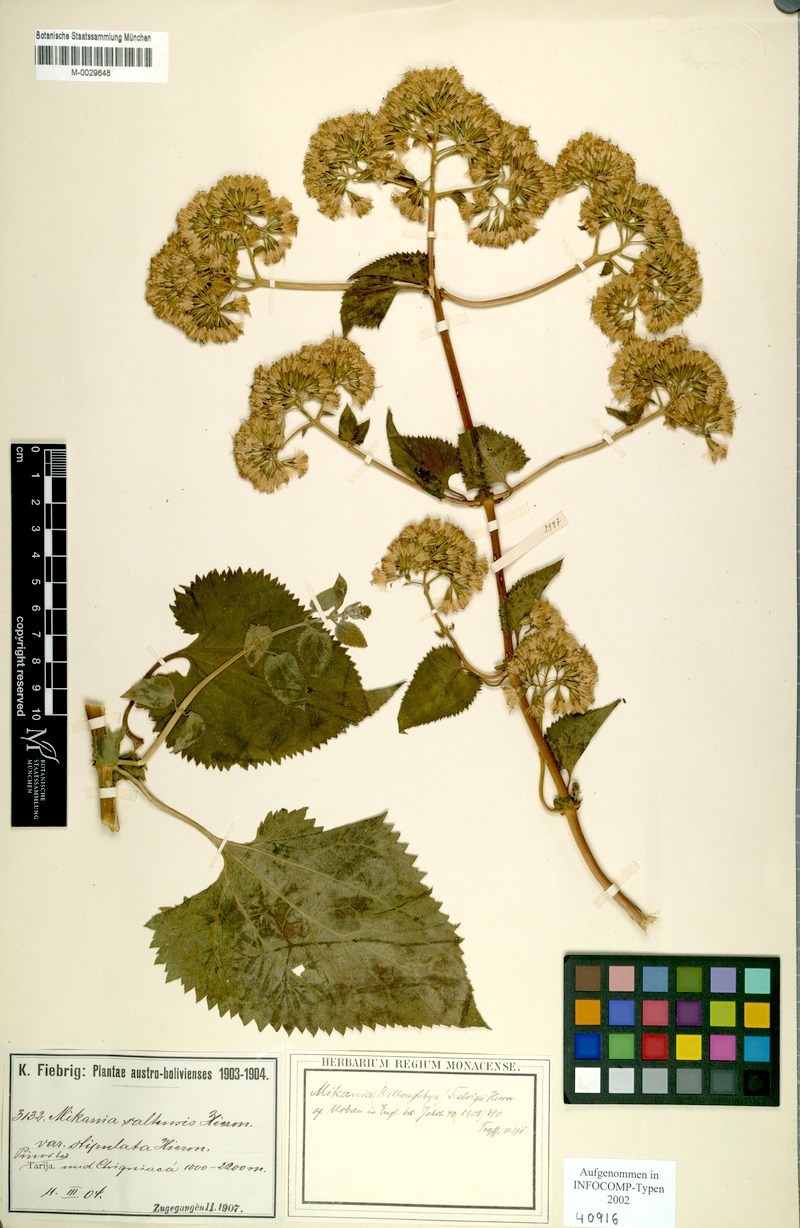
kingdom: Plantae
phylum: Tracheophyta
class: Magnoliopsida
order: Asterales
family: Asteraceae
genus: Mikania
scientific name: Mikania urticifolia
